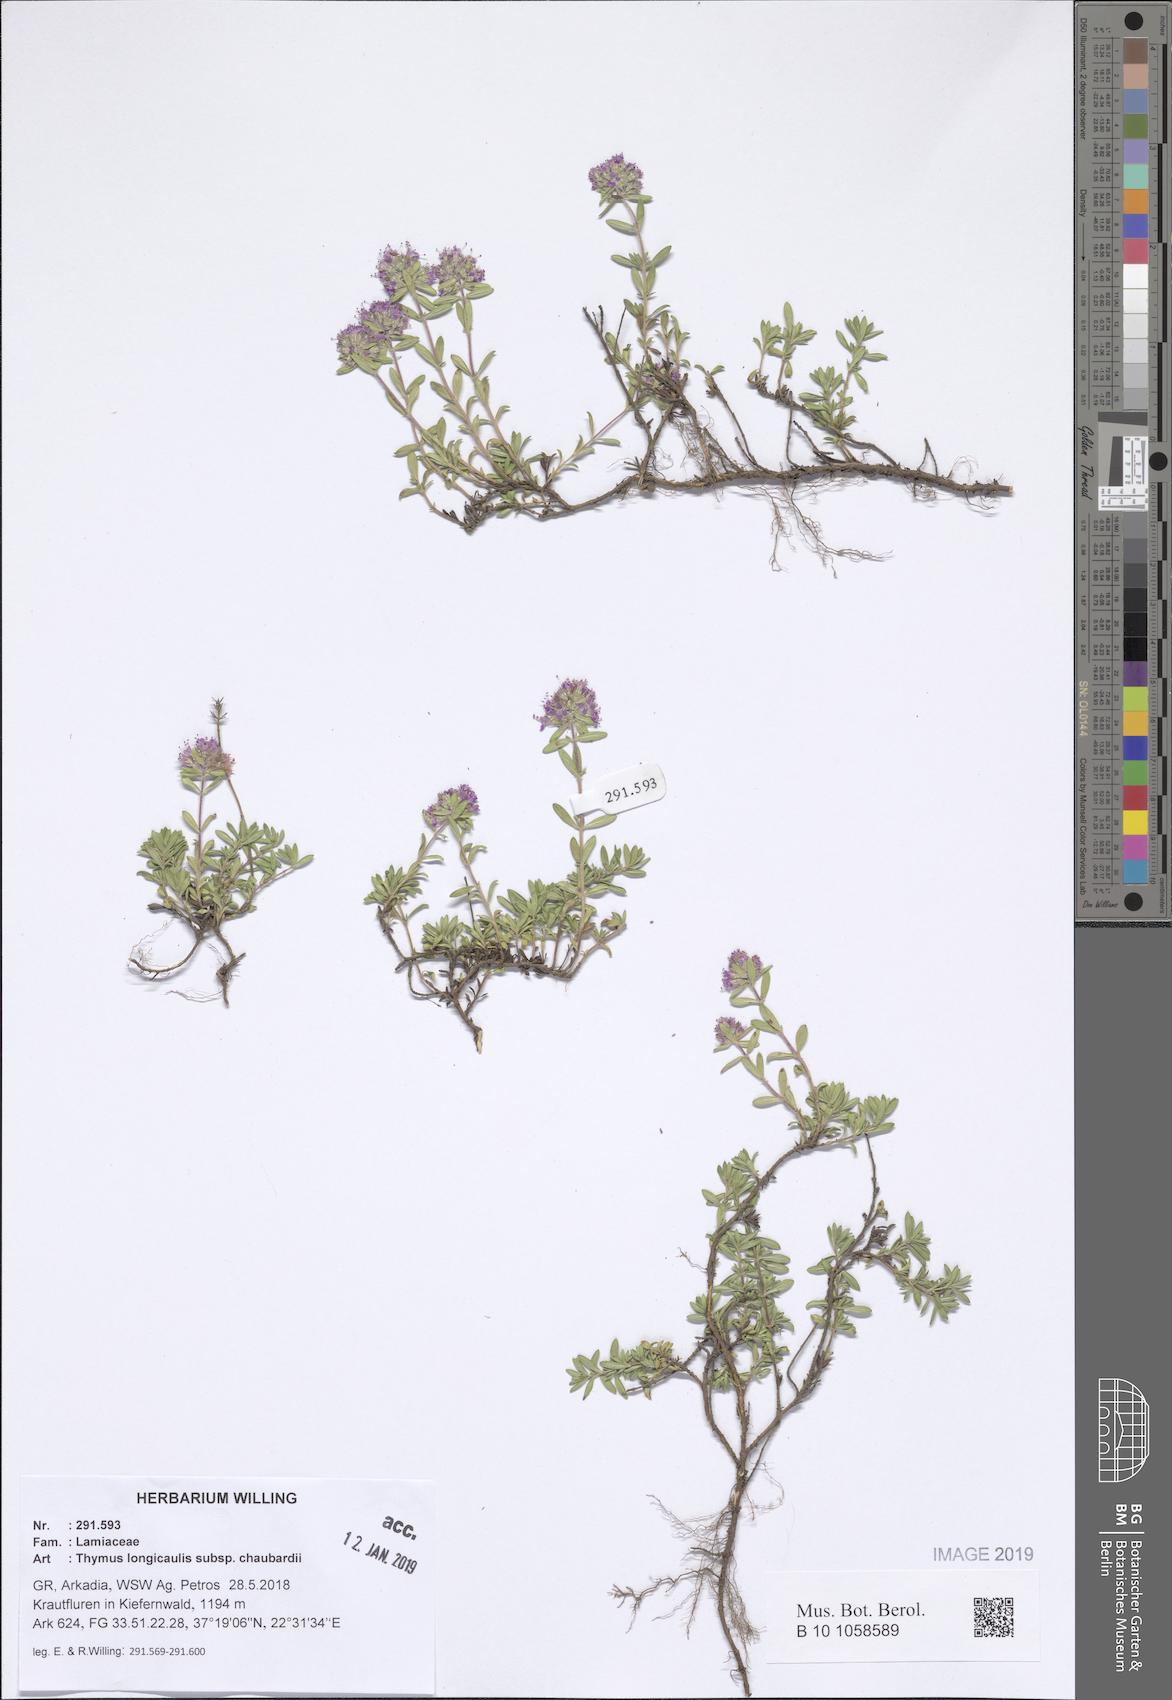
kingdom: Plantae
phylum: Tracheophyta
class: Magnoliopsida
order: Lamiales
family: Lamiaceae
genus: Thymus
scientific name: Thymus longicaulis
